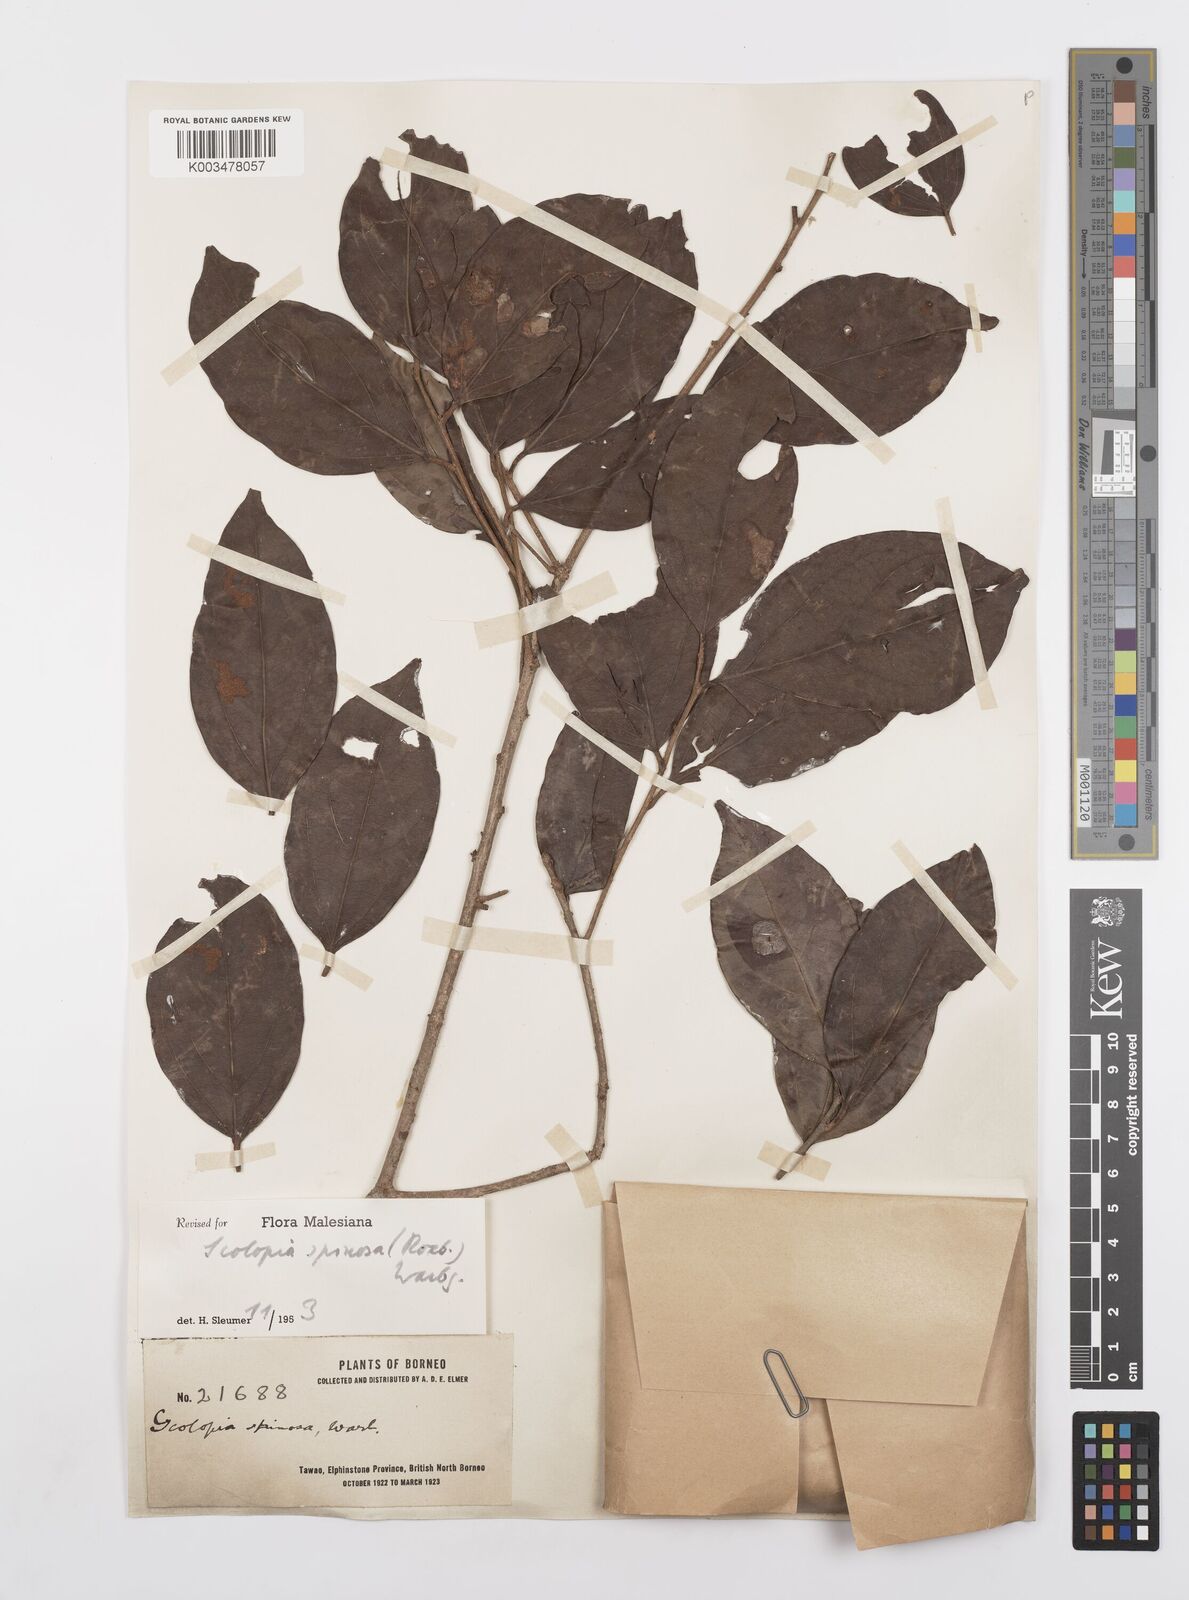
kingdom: Plantae
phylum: Tracheophyta
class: Magnoliopsida
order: Malpighiales
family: Salicaceae
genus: Scolopia
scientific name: Scolopia spinosa
